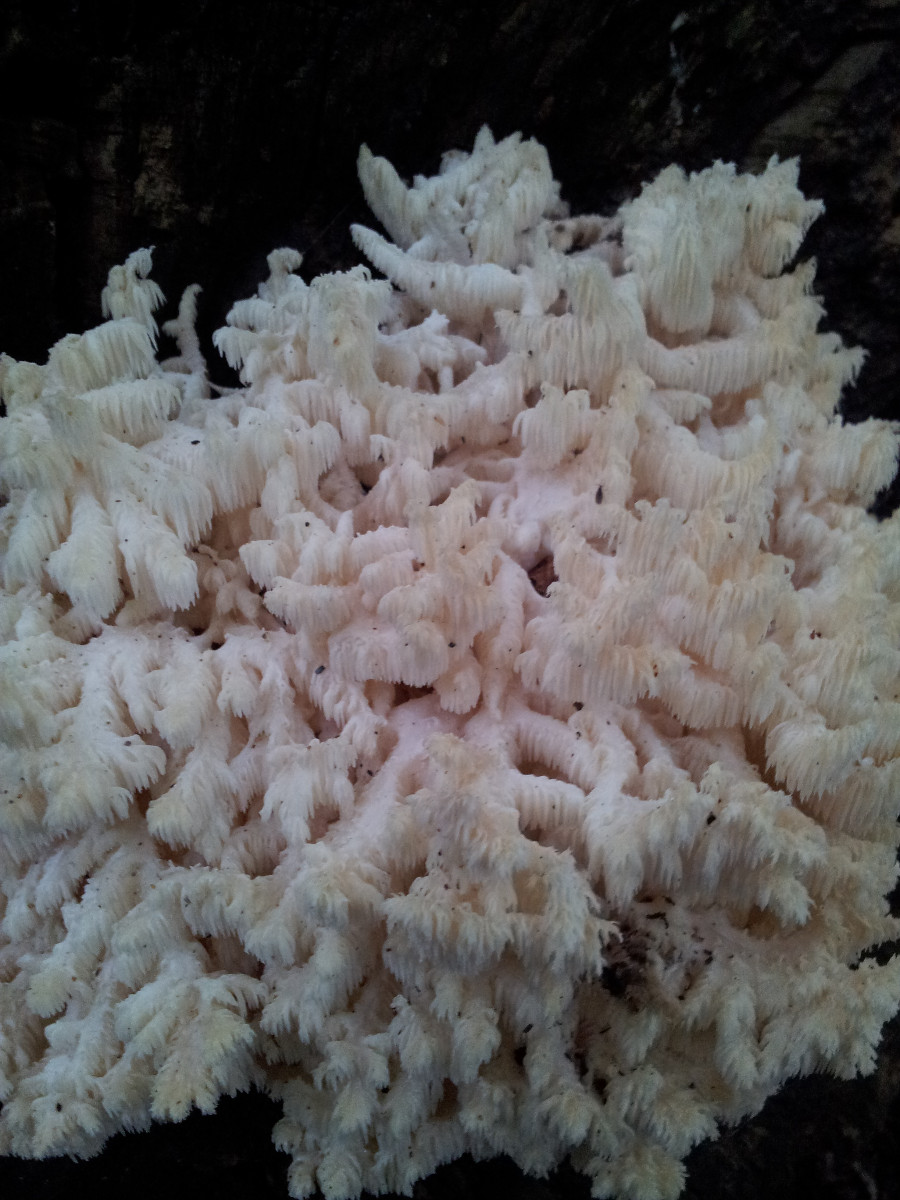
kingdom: Fungi
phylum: Basidiomycota
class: Agaricomycetes
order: Russulales
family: Hericiaceae
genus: Hericium
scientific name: Hericium coralloides
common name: koralpigsvamp
